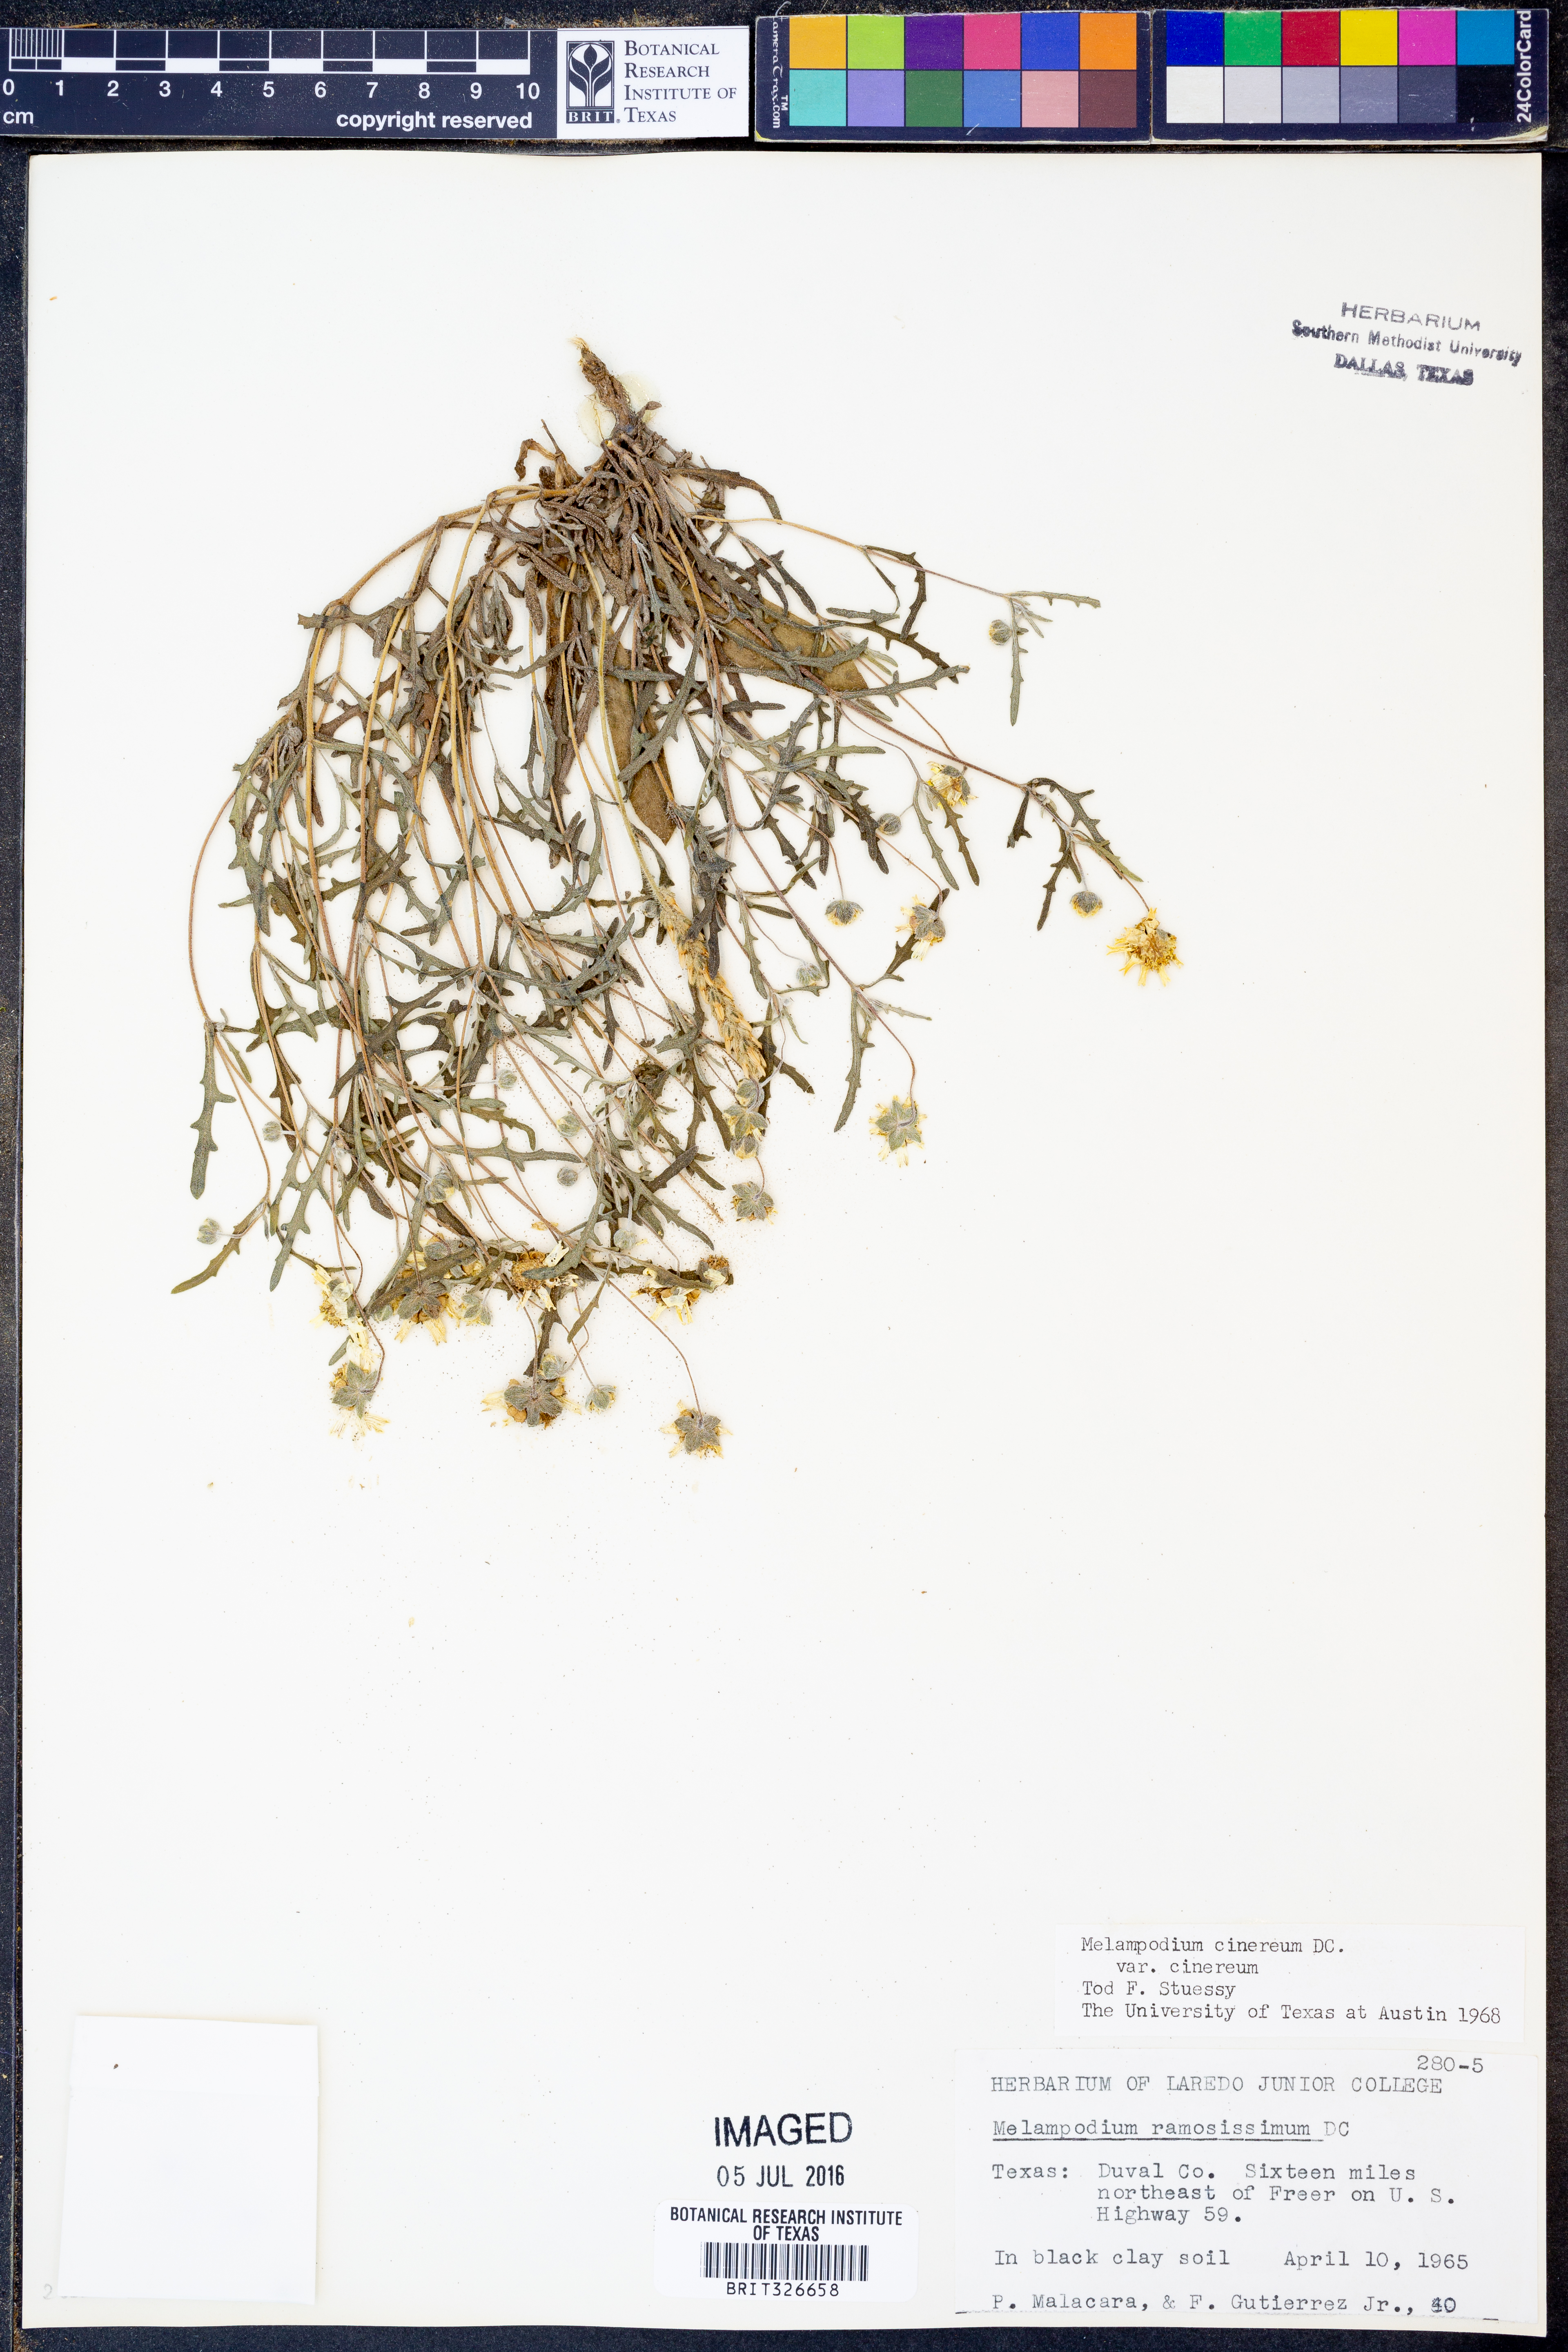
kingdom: Plantae
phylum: Tracheophyta
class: Magnoliopsida
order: Asterales
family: Asteraceae
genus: Melampodium
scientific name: Melampodium cinereum
